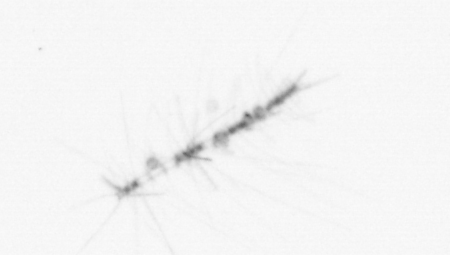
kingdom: Chromista
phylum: Ochrophyta
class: Bacillariophyceae
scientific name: Bacillariophyceae
